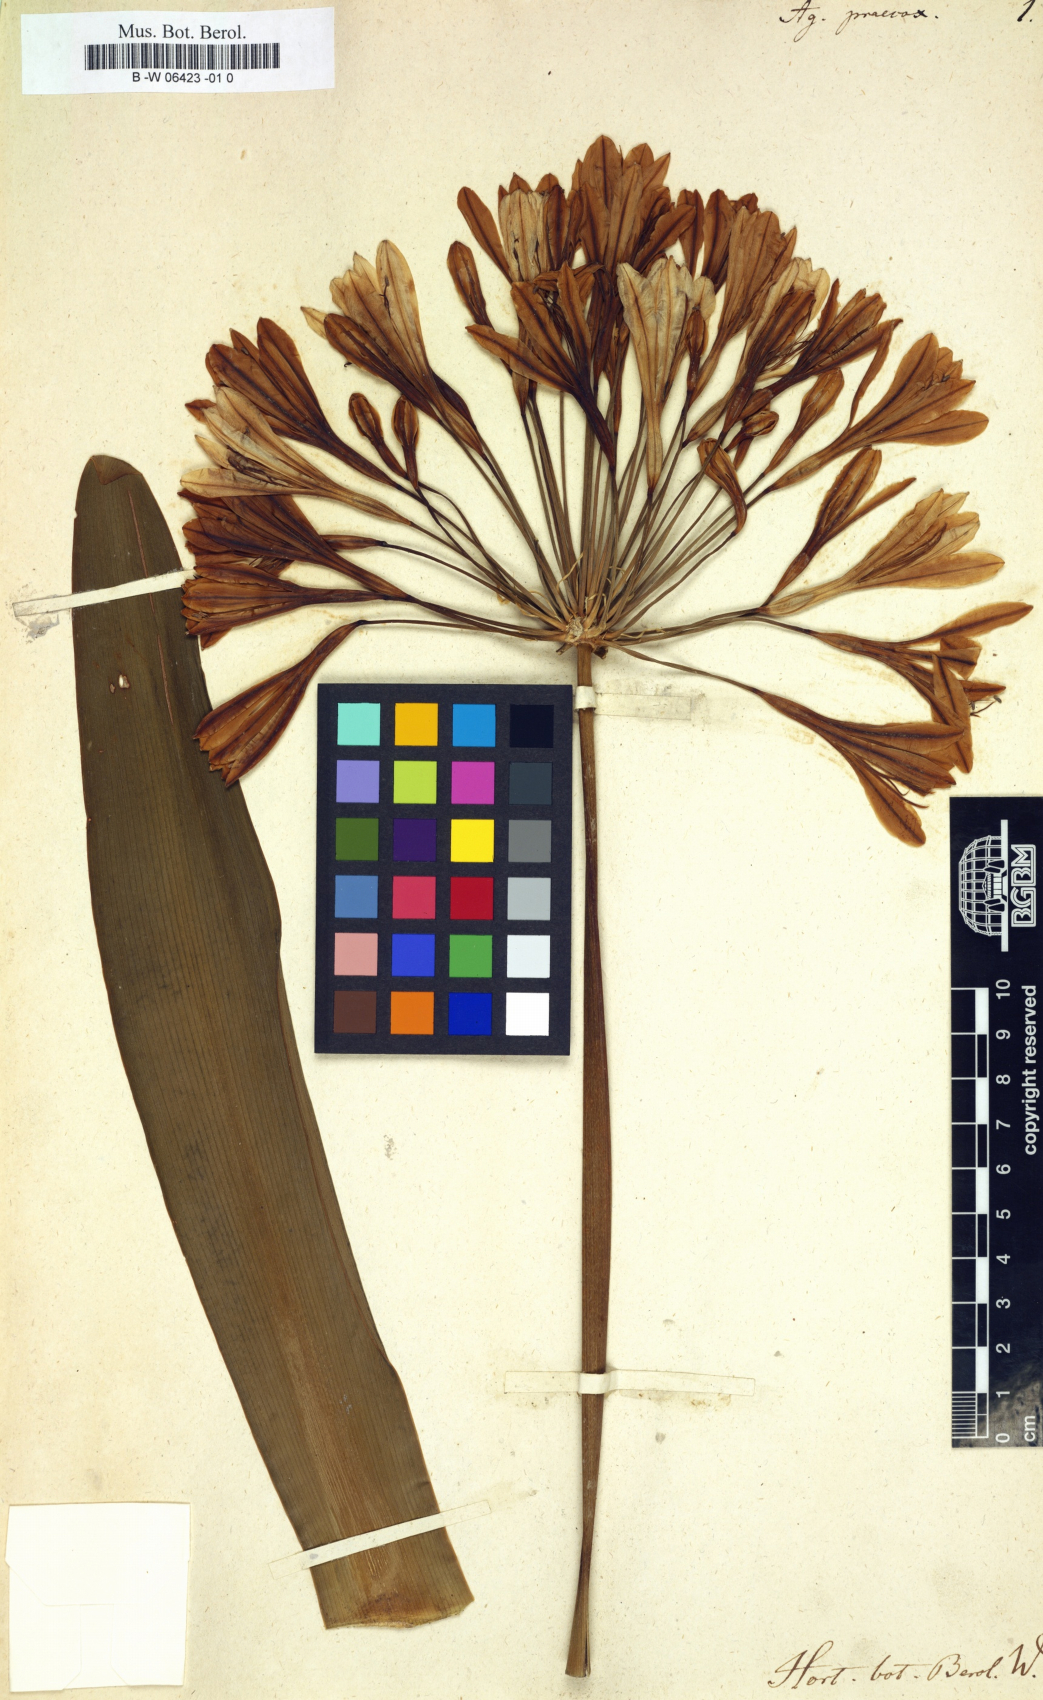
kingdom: Plantae
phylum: Tracheophyta
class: Liliopsida
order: Asparagales
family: Amaryllidaceae
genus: Agapanthus
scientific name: Agapanthus praecox
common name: African-lily
